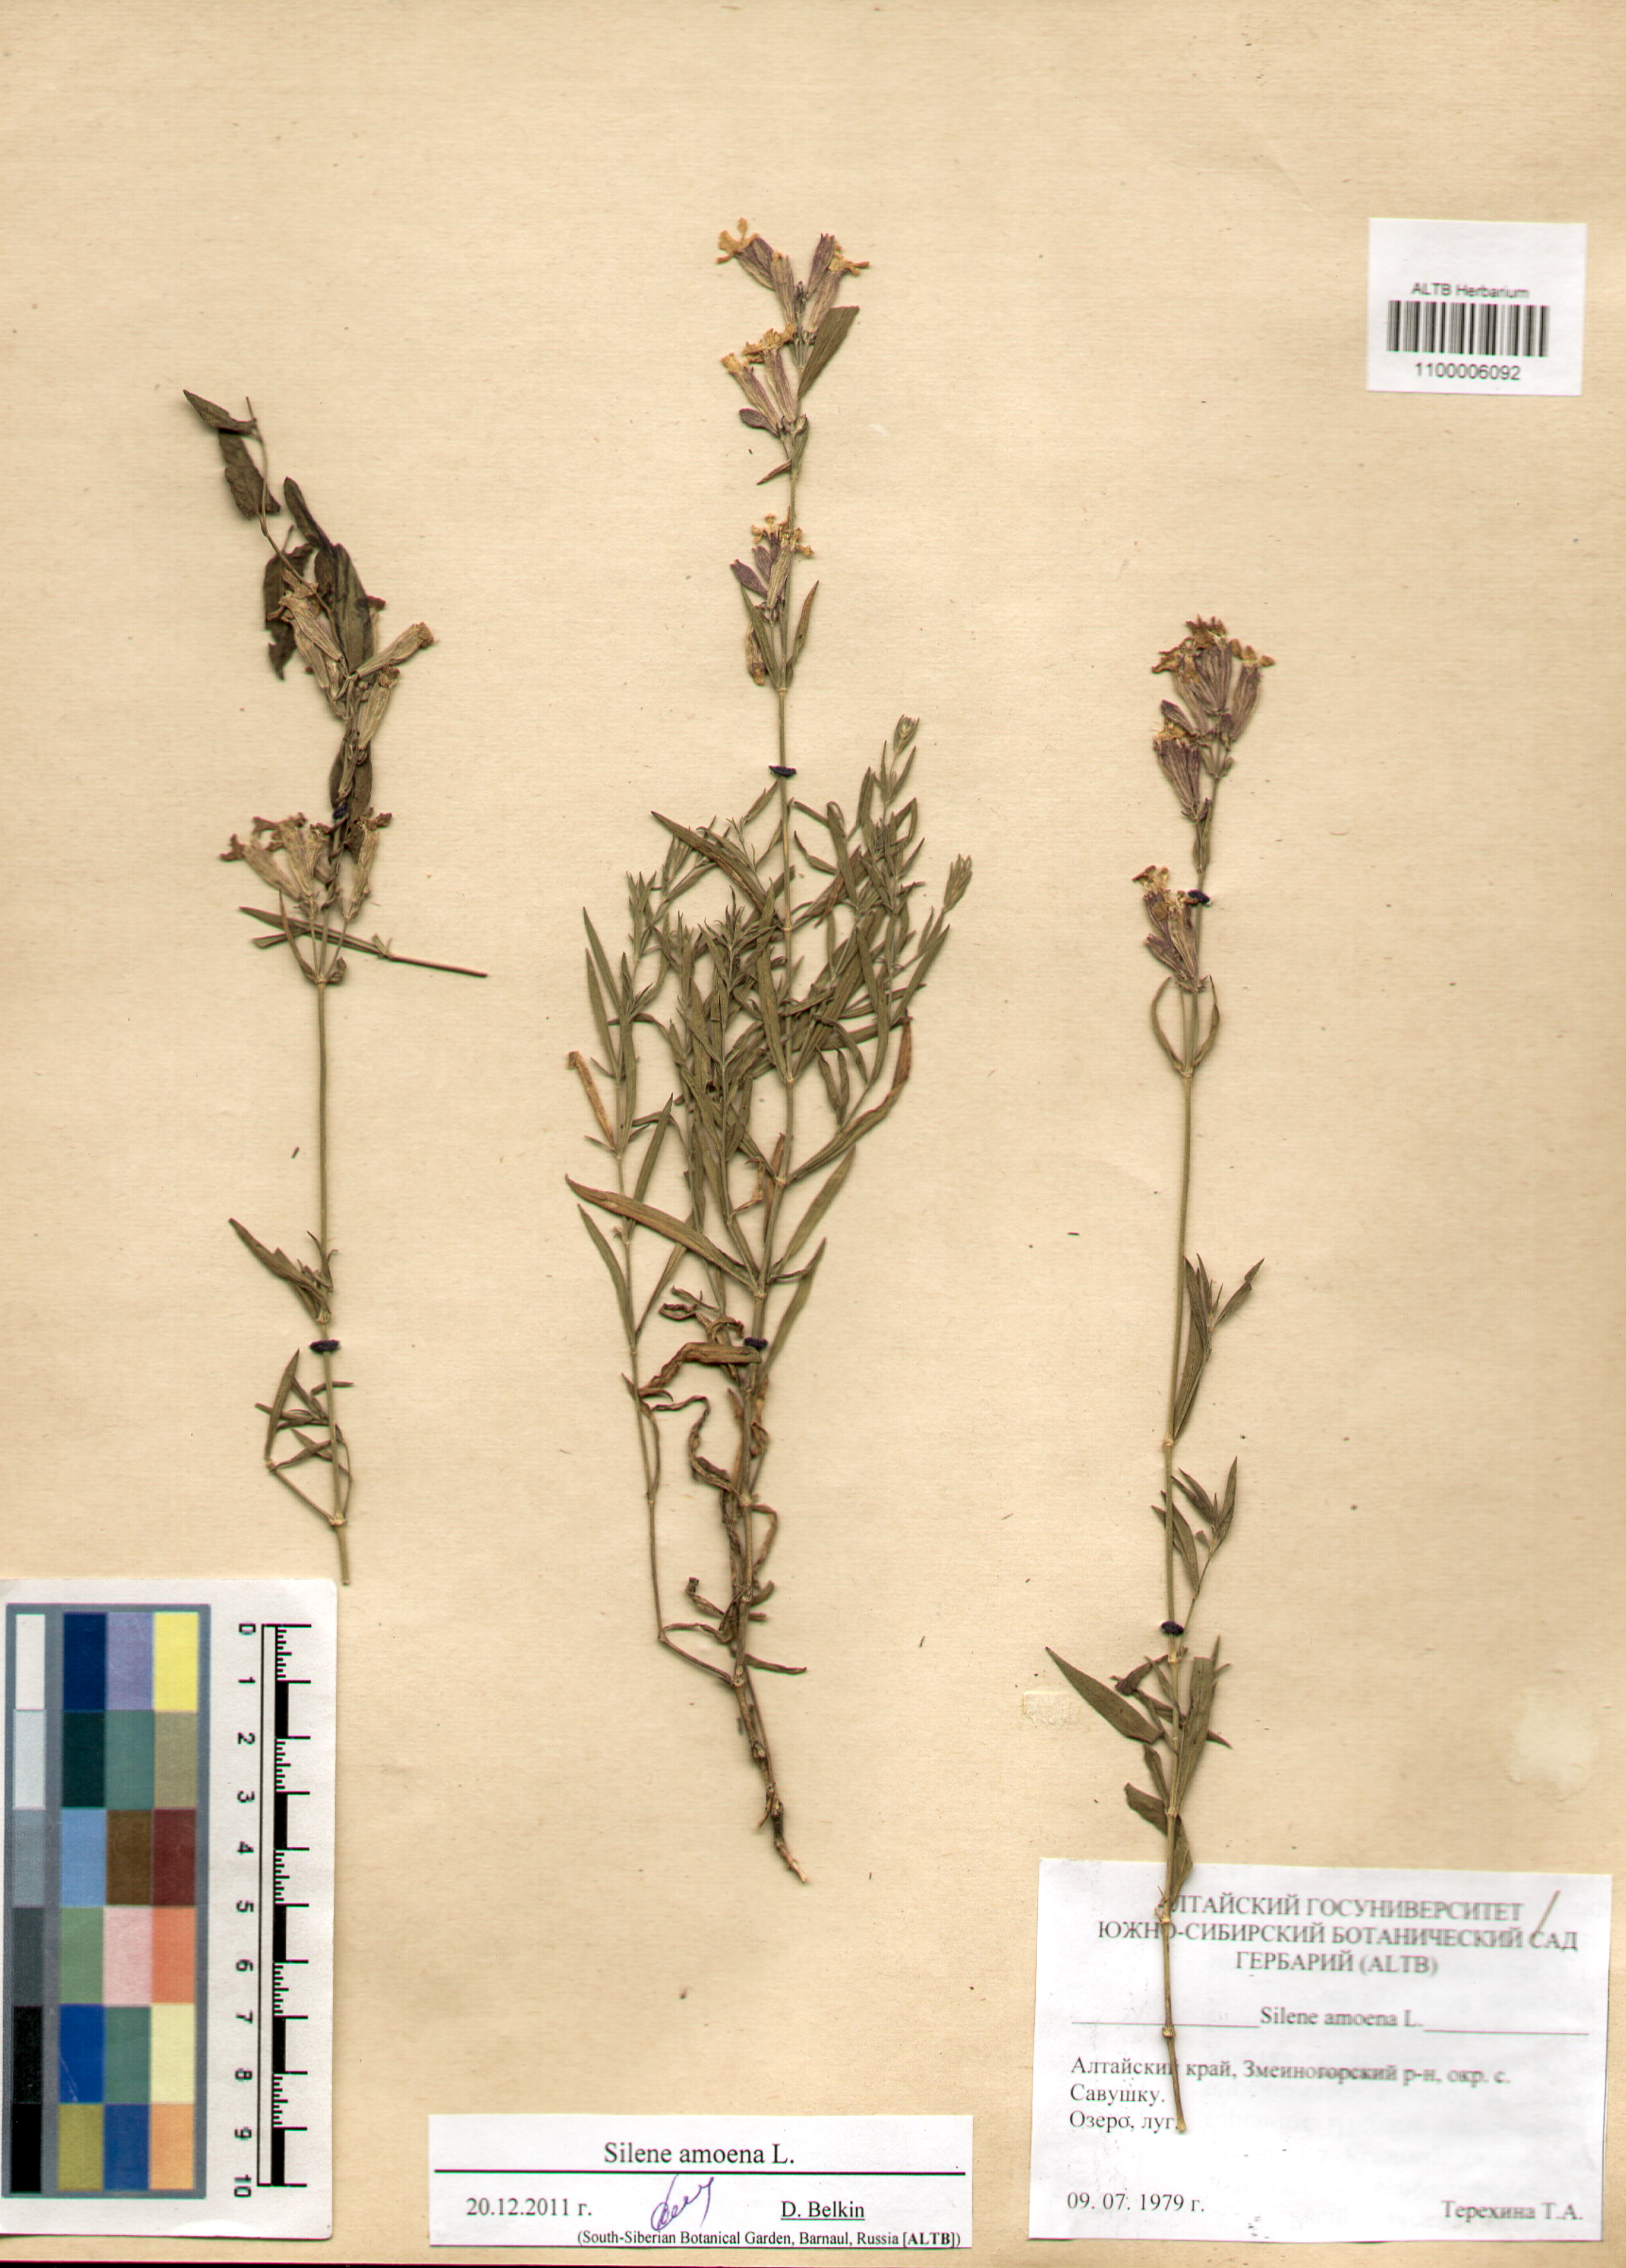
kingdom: Plantae
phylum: Tracheophyta
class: Magnoliopsida
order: Caryophyllales
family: Caryophyllaceae
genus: Silene
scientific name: Silene amoena
